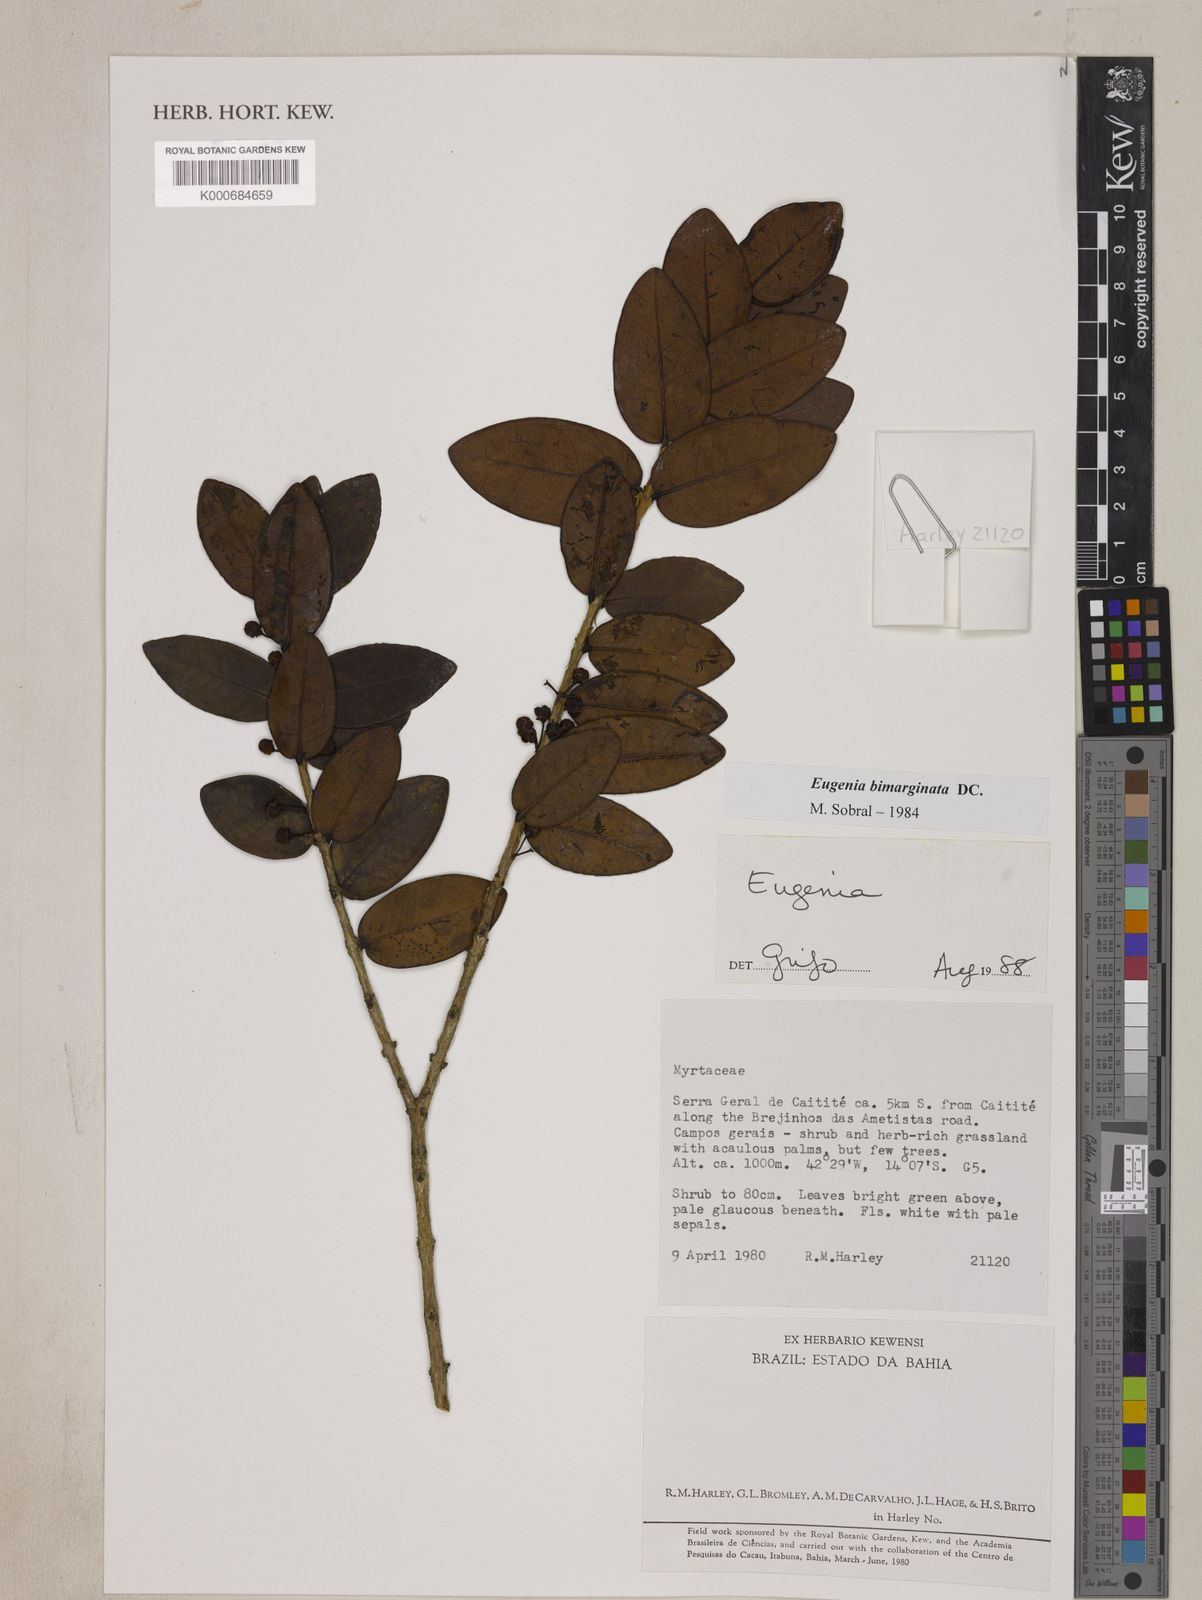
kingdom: Plantae
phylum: Tracheophyta
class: Magnoliopsida
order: Myrtales
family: Myrtaceae
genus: Eugenia
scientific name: Eugenia bimarginata
